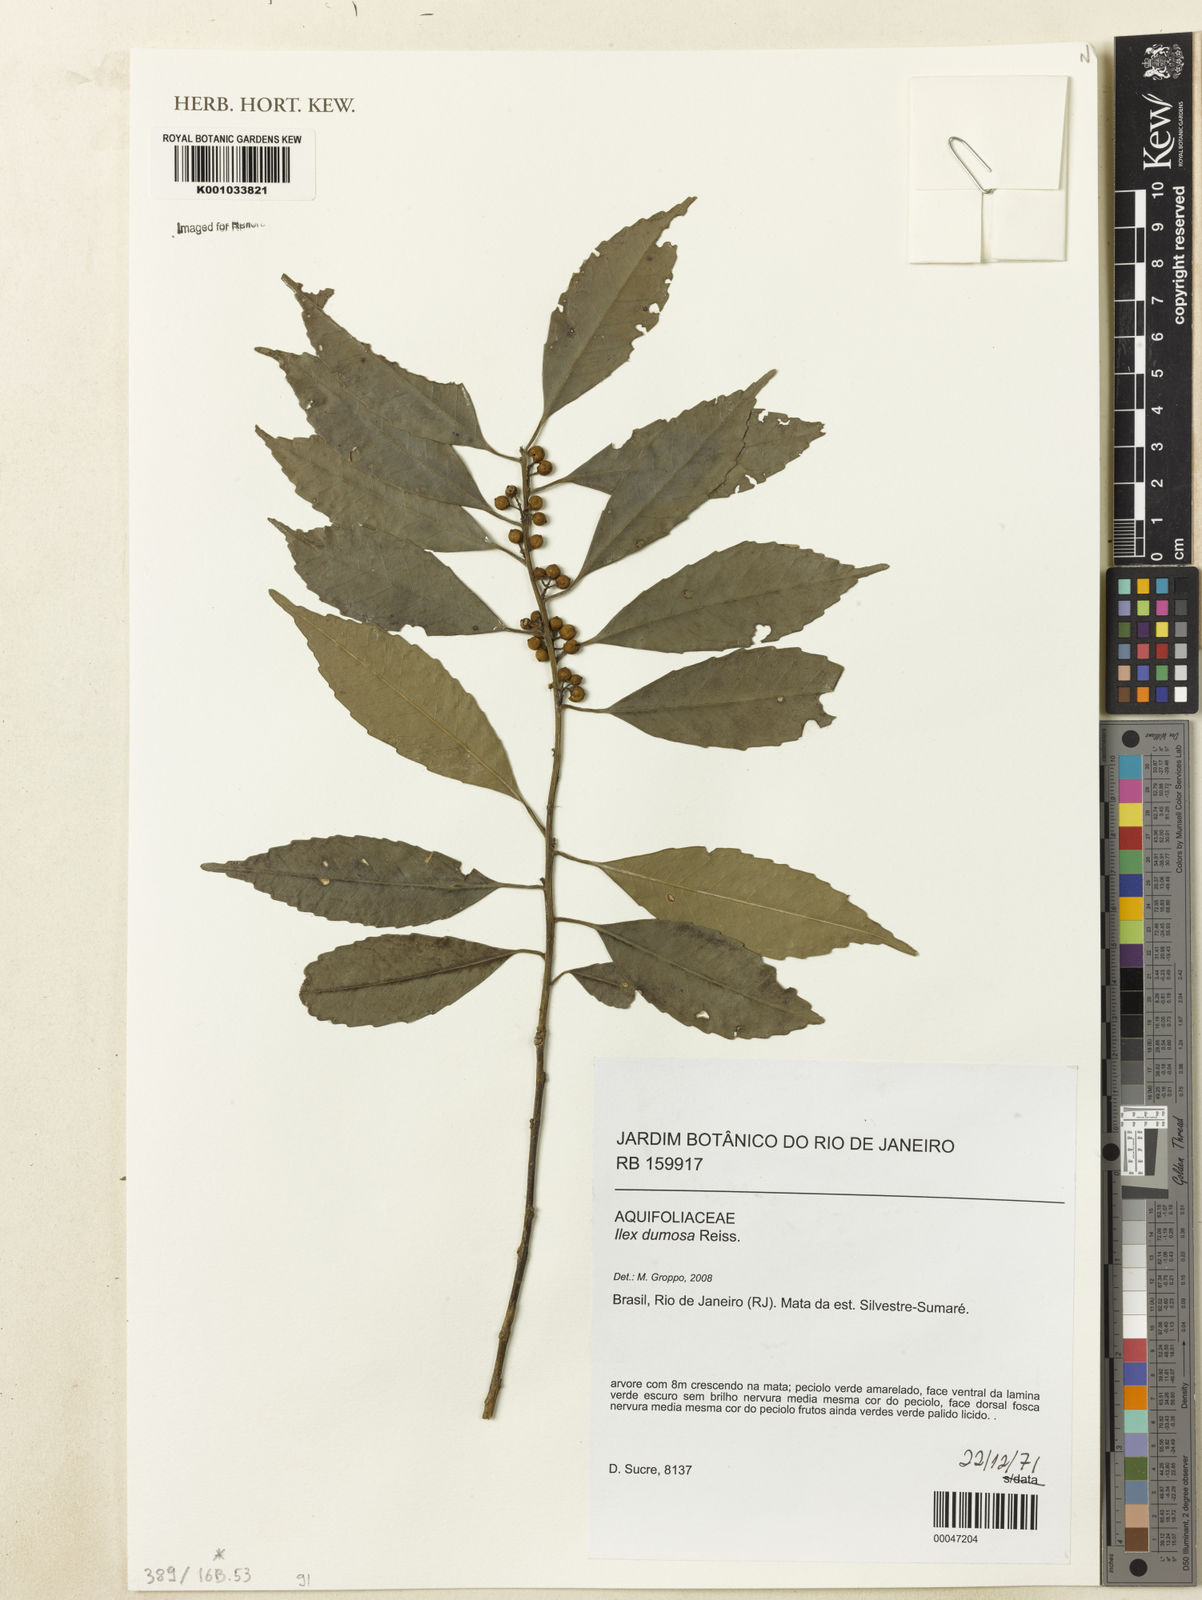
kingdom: Plantae
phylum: Tracheophyta
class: Magnoliopsida
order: Aquifoliales
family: Aquifoliaceae
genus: Ilex
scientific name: Ilex dumosa
